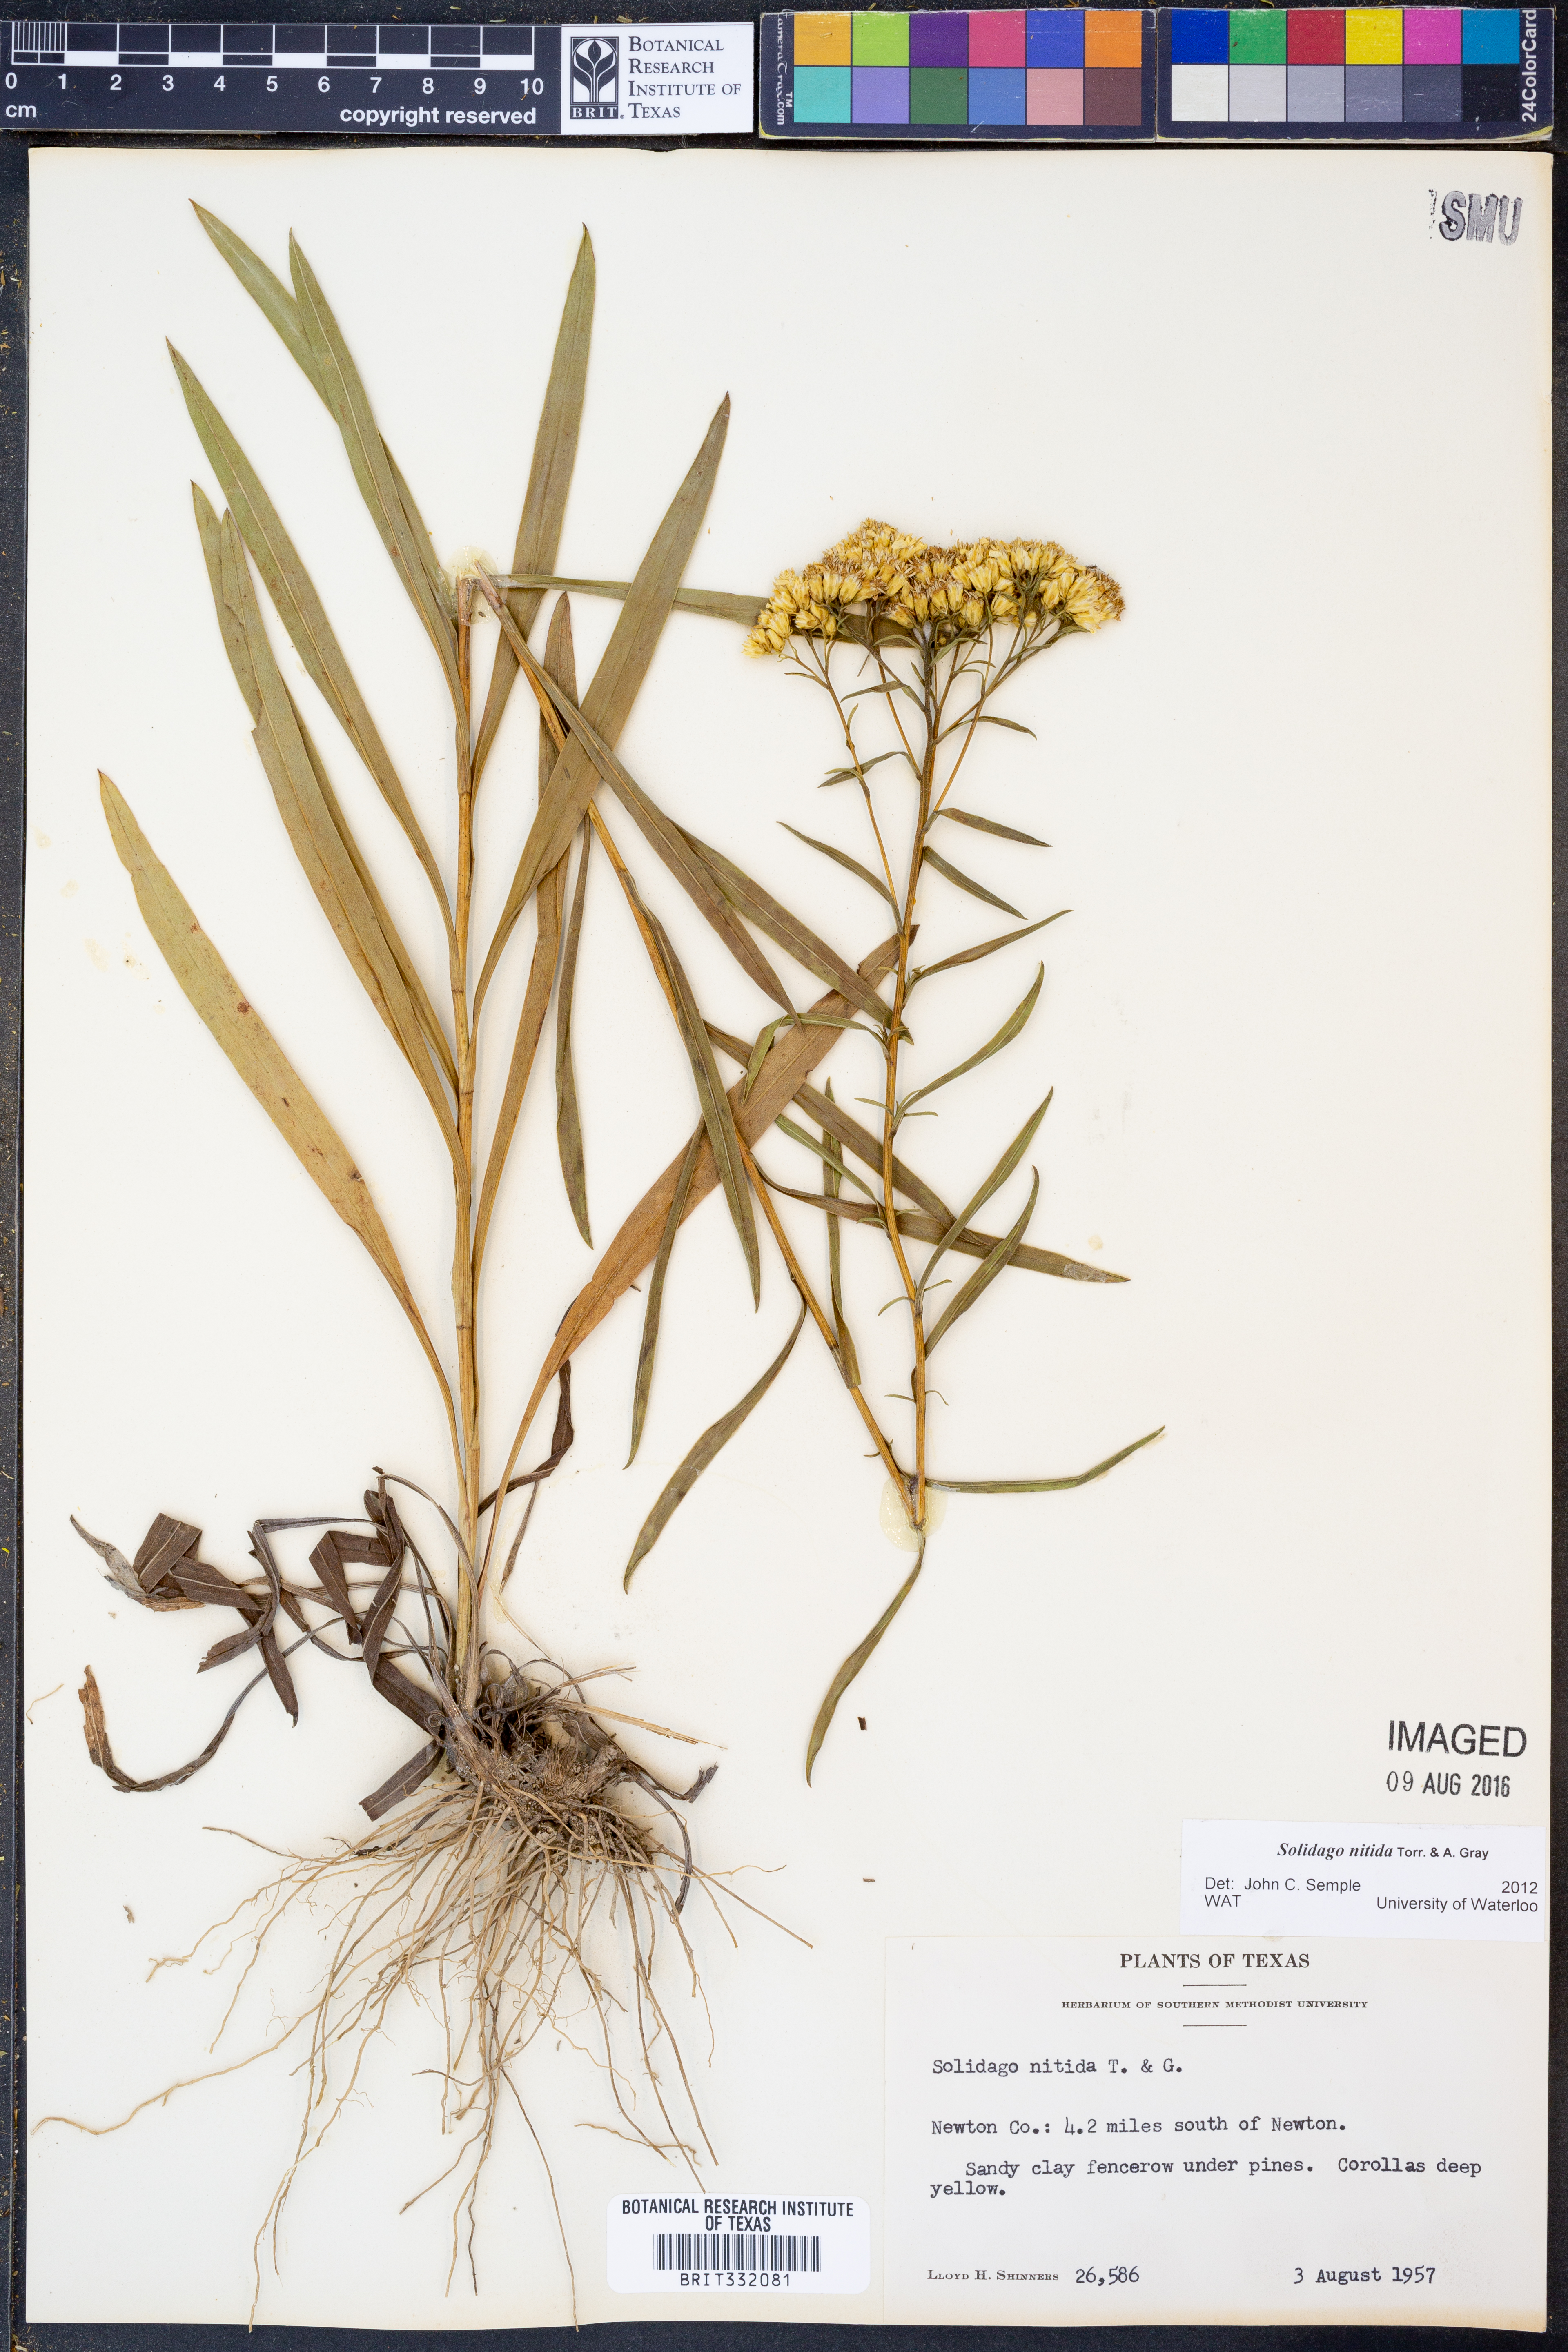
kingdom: Plantae
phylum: Tracheophyta
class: Magnoliopsida
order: Asterales
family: Asteraceae
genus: Solidago
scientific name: Solidago nitida
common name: Shiny goldenrod
